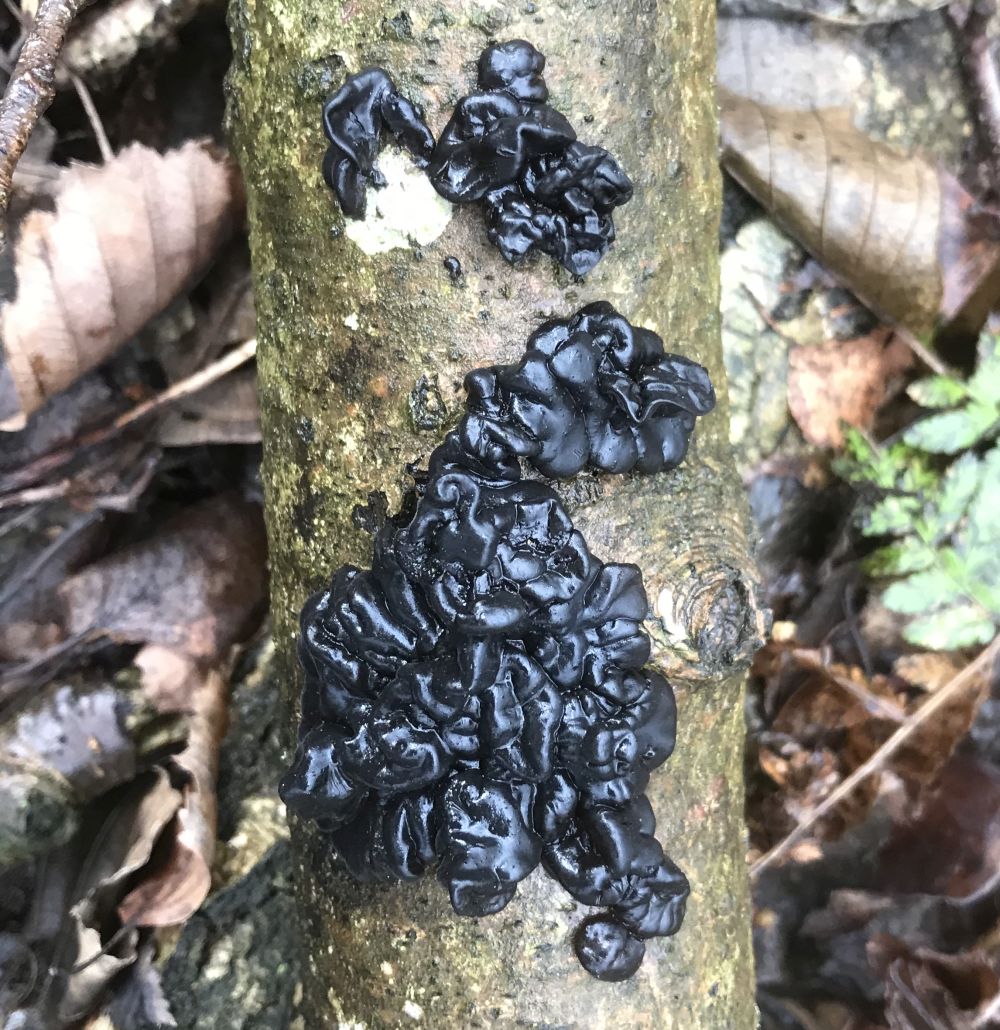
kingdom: Fungi
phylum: Basidiomycota
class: Agaricomycetes
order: Auriculariales
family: Auriculariaceae
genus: Exidia
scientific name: Exidia nigricans
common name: almindelig bævretop
